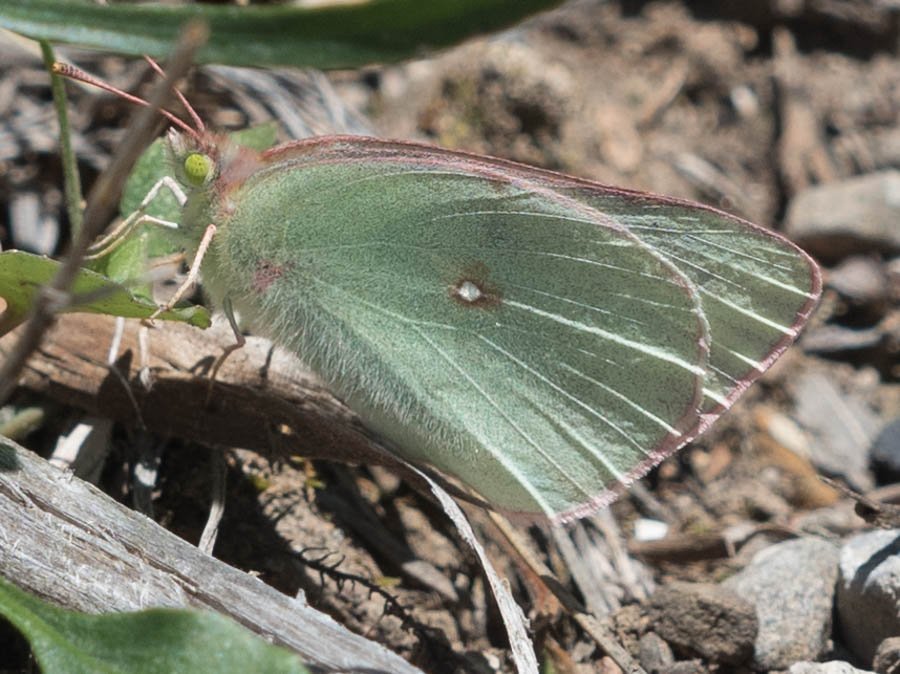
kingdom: Animalia
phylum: Arthropoda
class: Insecta
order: Lepidoptera
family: Pieridae
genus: Colias
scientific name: Colias christina
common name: Christina Sulphur
